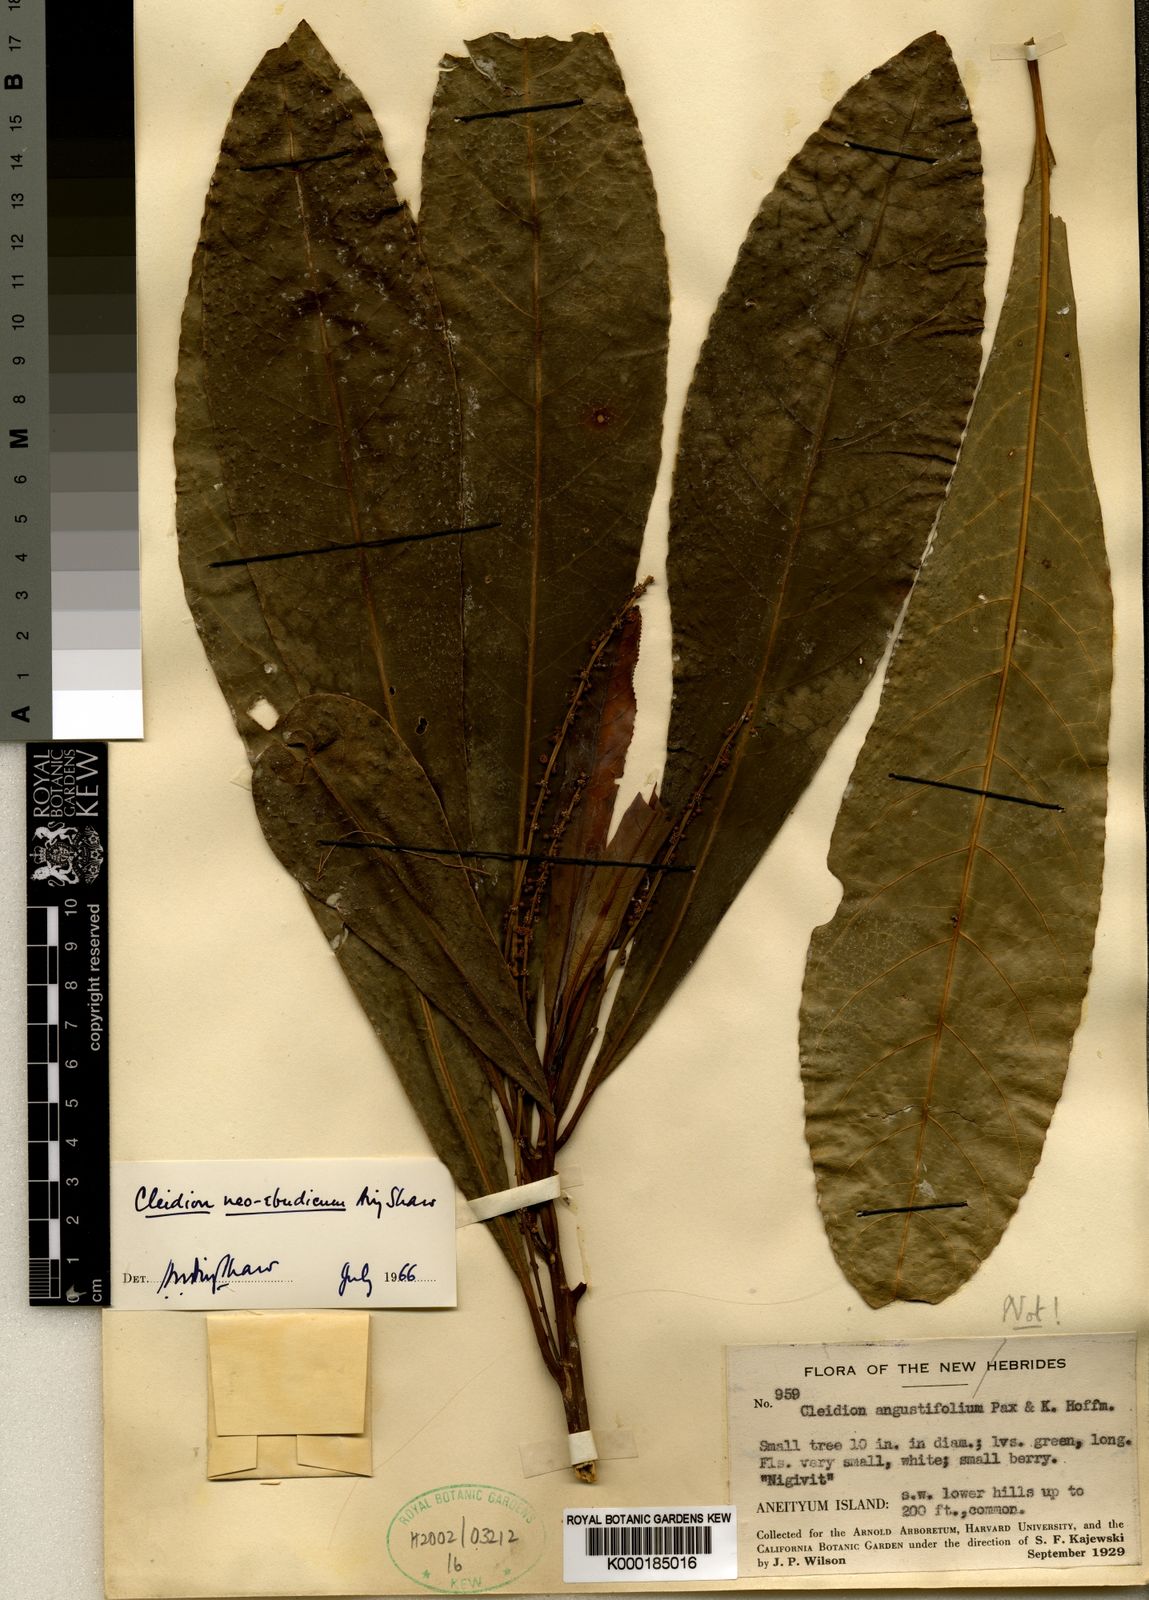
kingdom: Plantae
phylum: Tracheophyta
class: Magnoliopsida
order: Malpighiales
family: Euphorbiaceae
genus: Cleidion
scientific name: Cleidion neoebudicum
